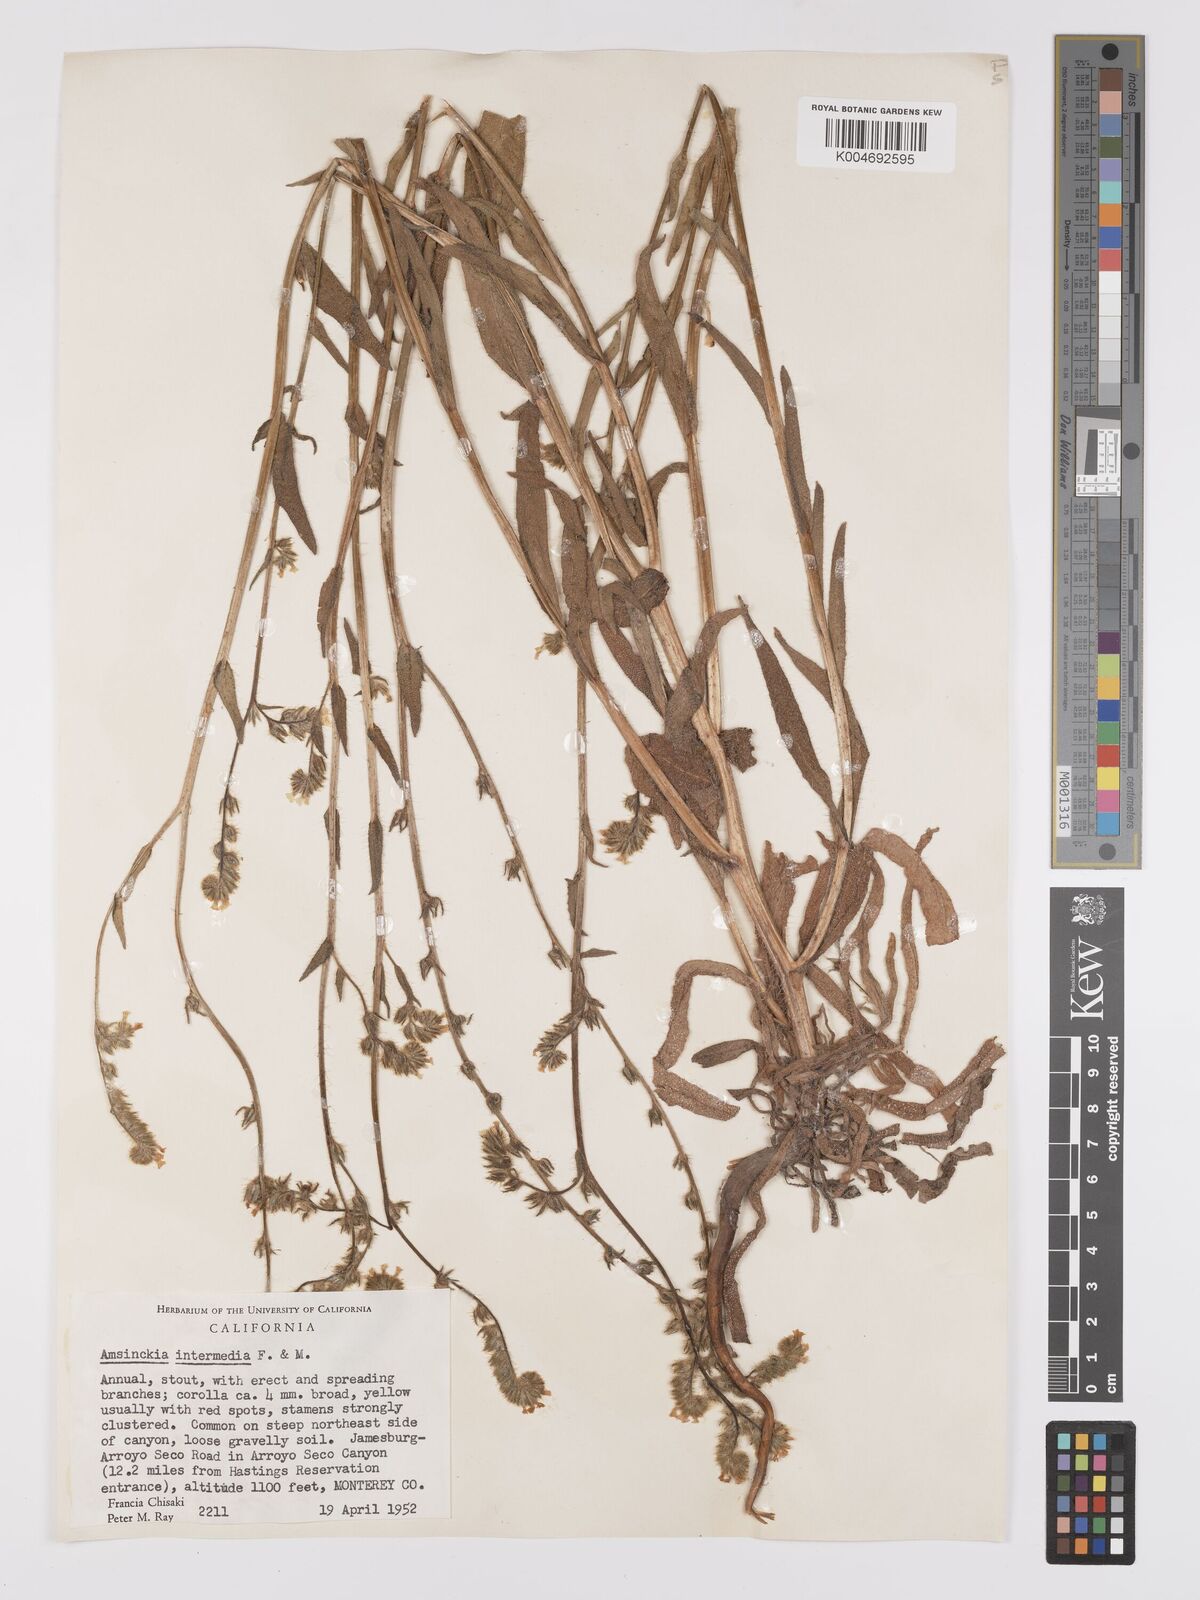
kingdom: Plantae
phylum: Tracheophyta
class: Magnoliopsida
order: Boraginales
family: Boraginaceae
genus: Amsinckia
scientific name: Amsinckia menziesii
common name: Menzies' fiddleneck
